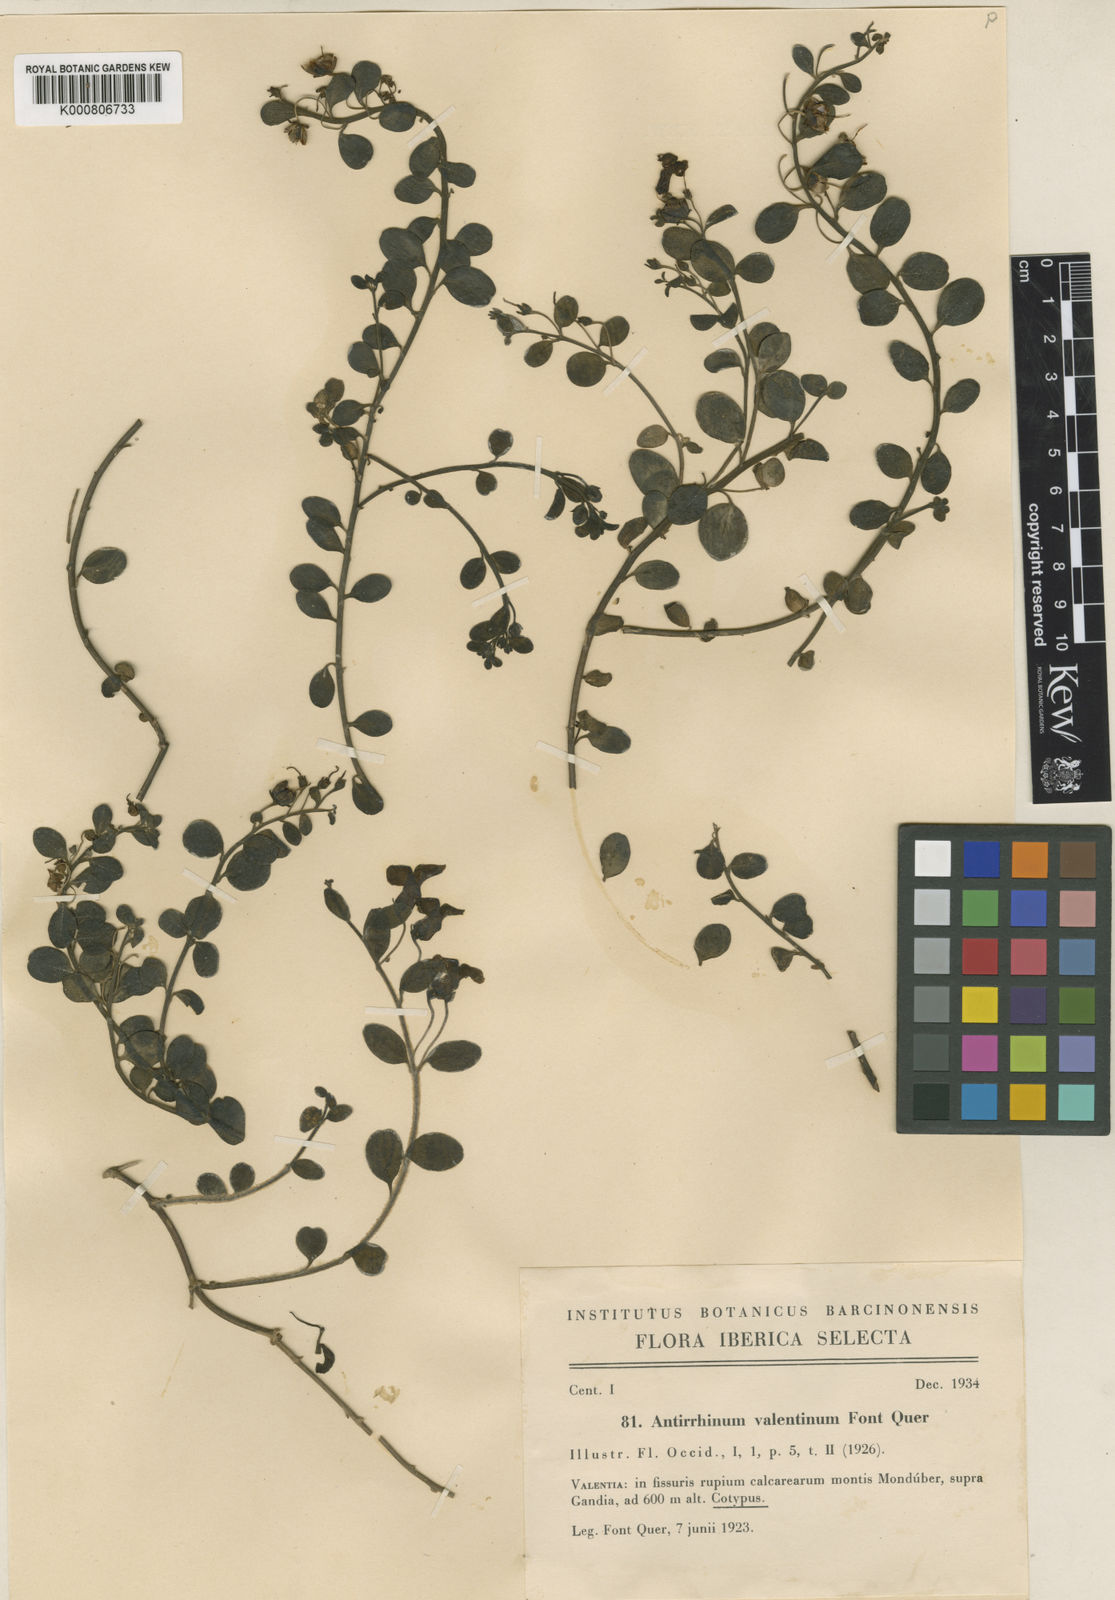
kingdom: Plantae
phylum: Tracheophyta
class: Magnoliopsida
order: Lamiales
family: Plantaginaceae
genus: Antirrhinum
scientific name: Antirrhinum valentinum
